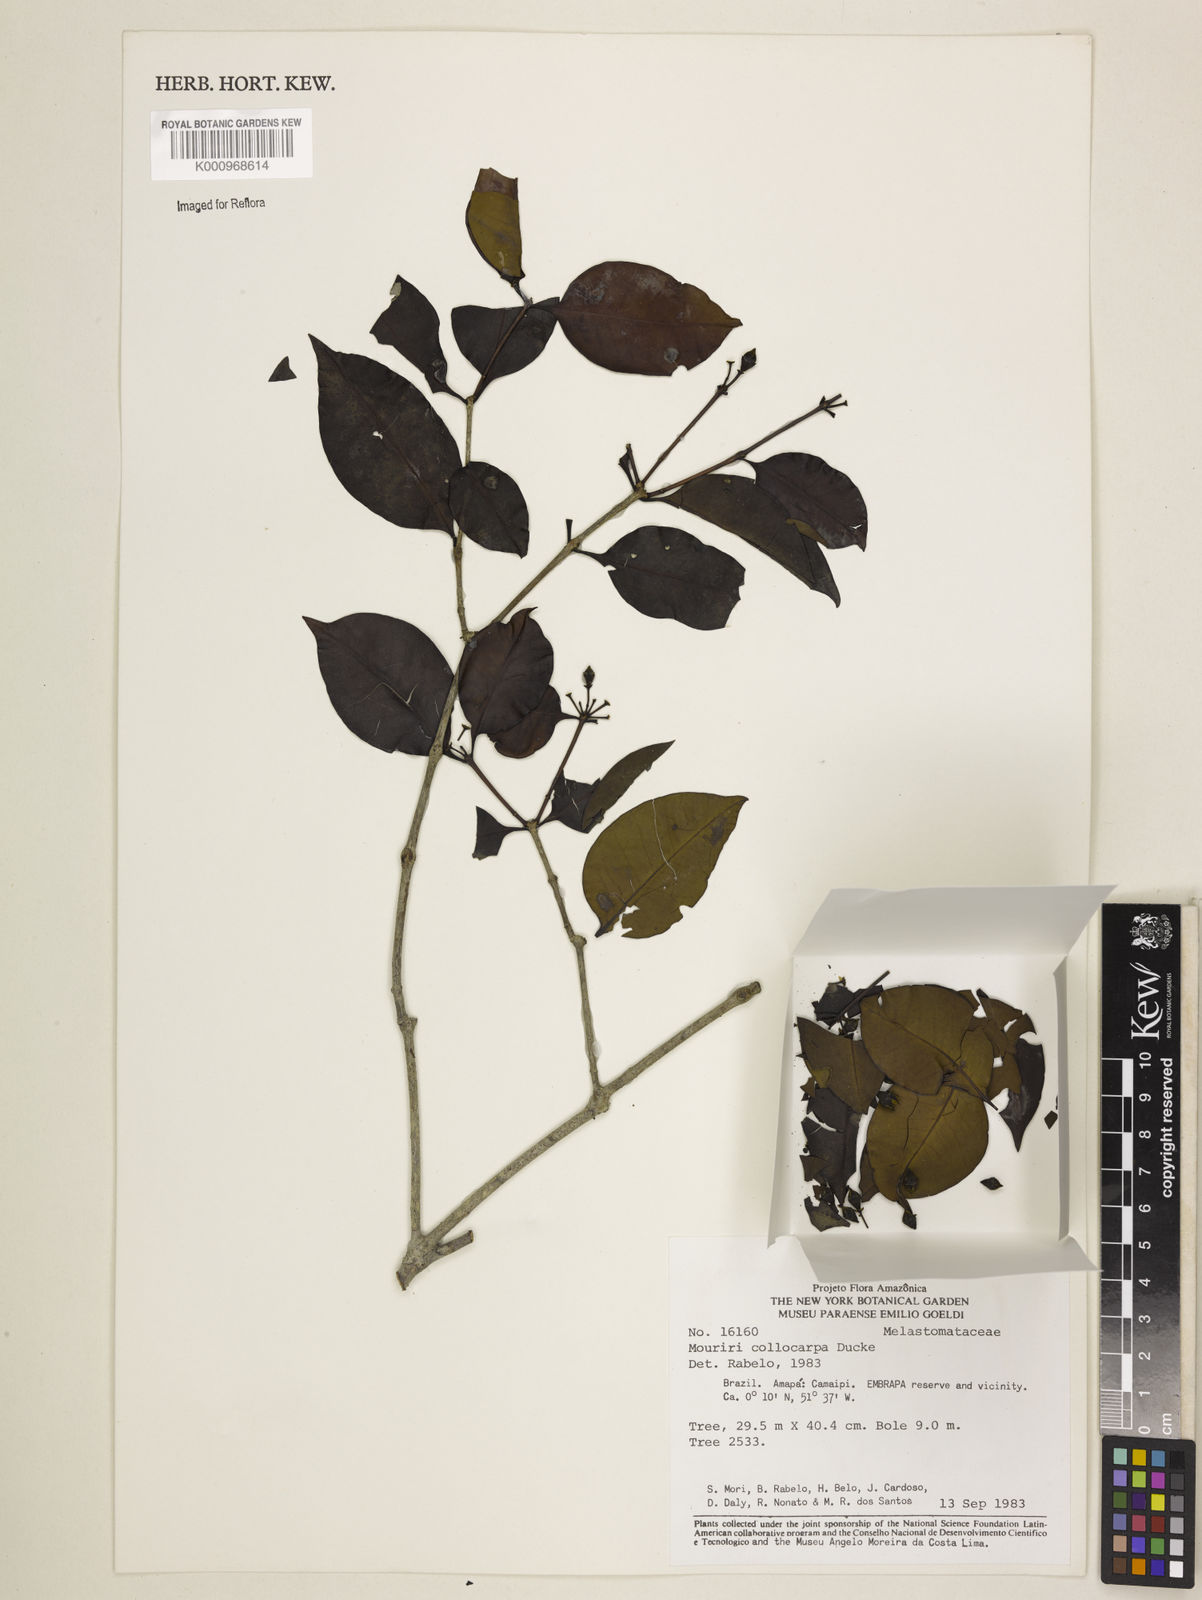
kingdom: Plantae
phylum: Tracheophyta
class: Magnoliopsida
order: Myrtales
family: Melastomataceae
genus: Mouriri
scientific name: Mouriri collocarpa
